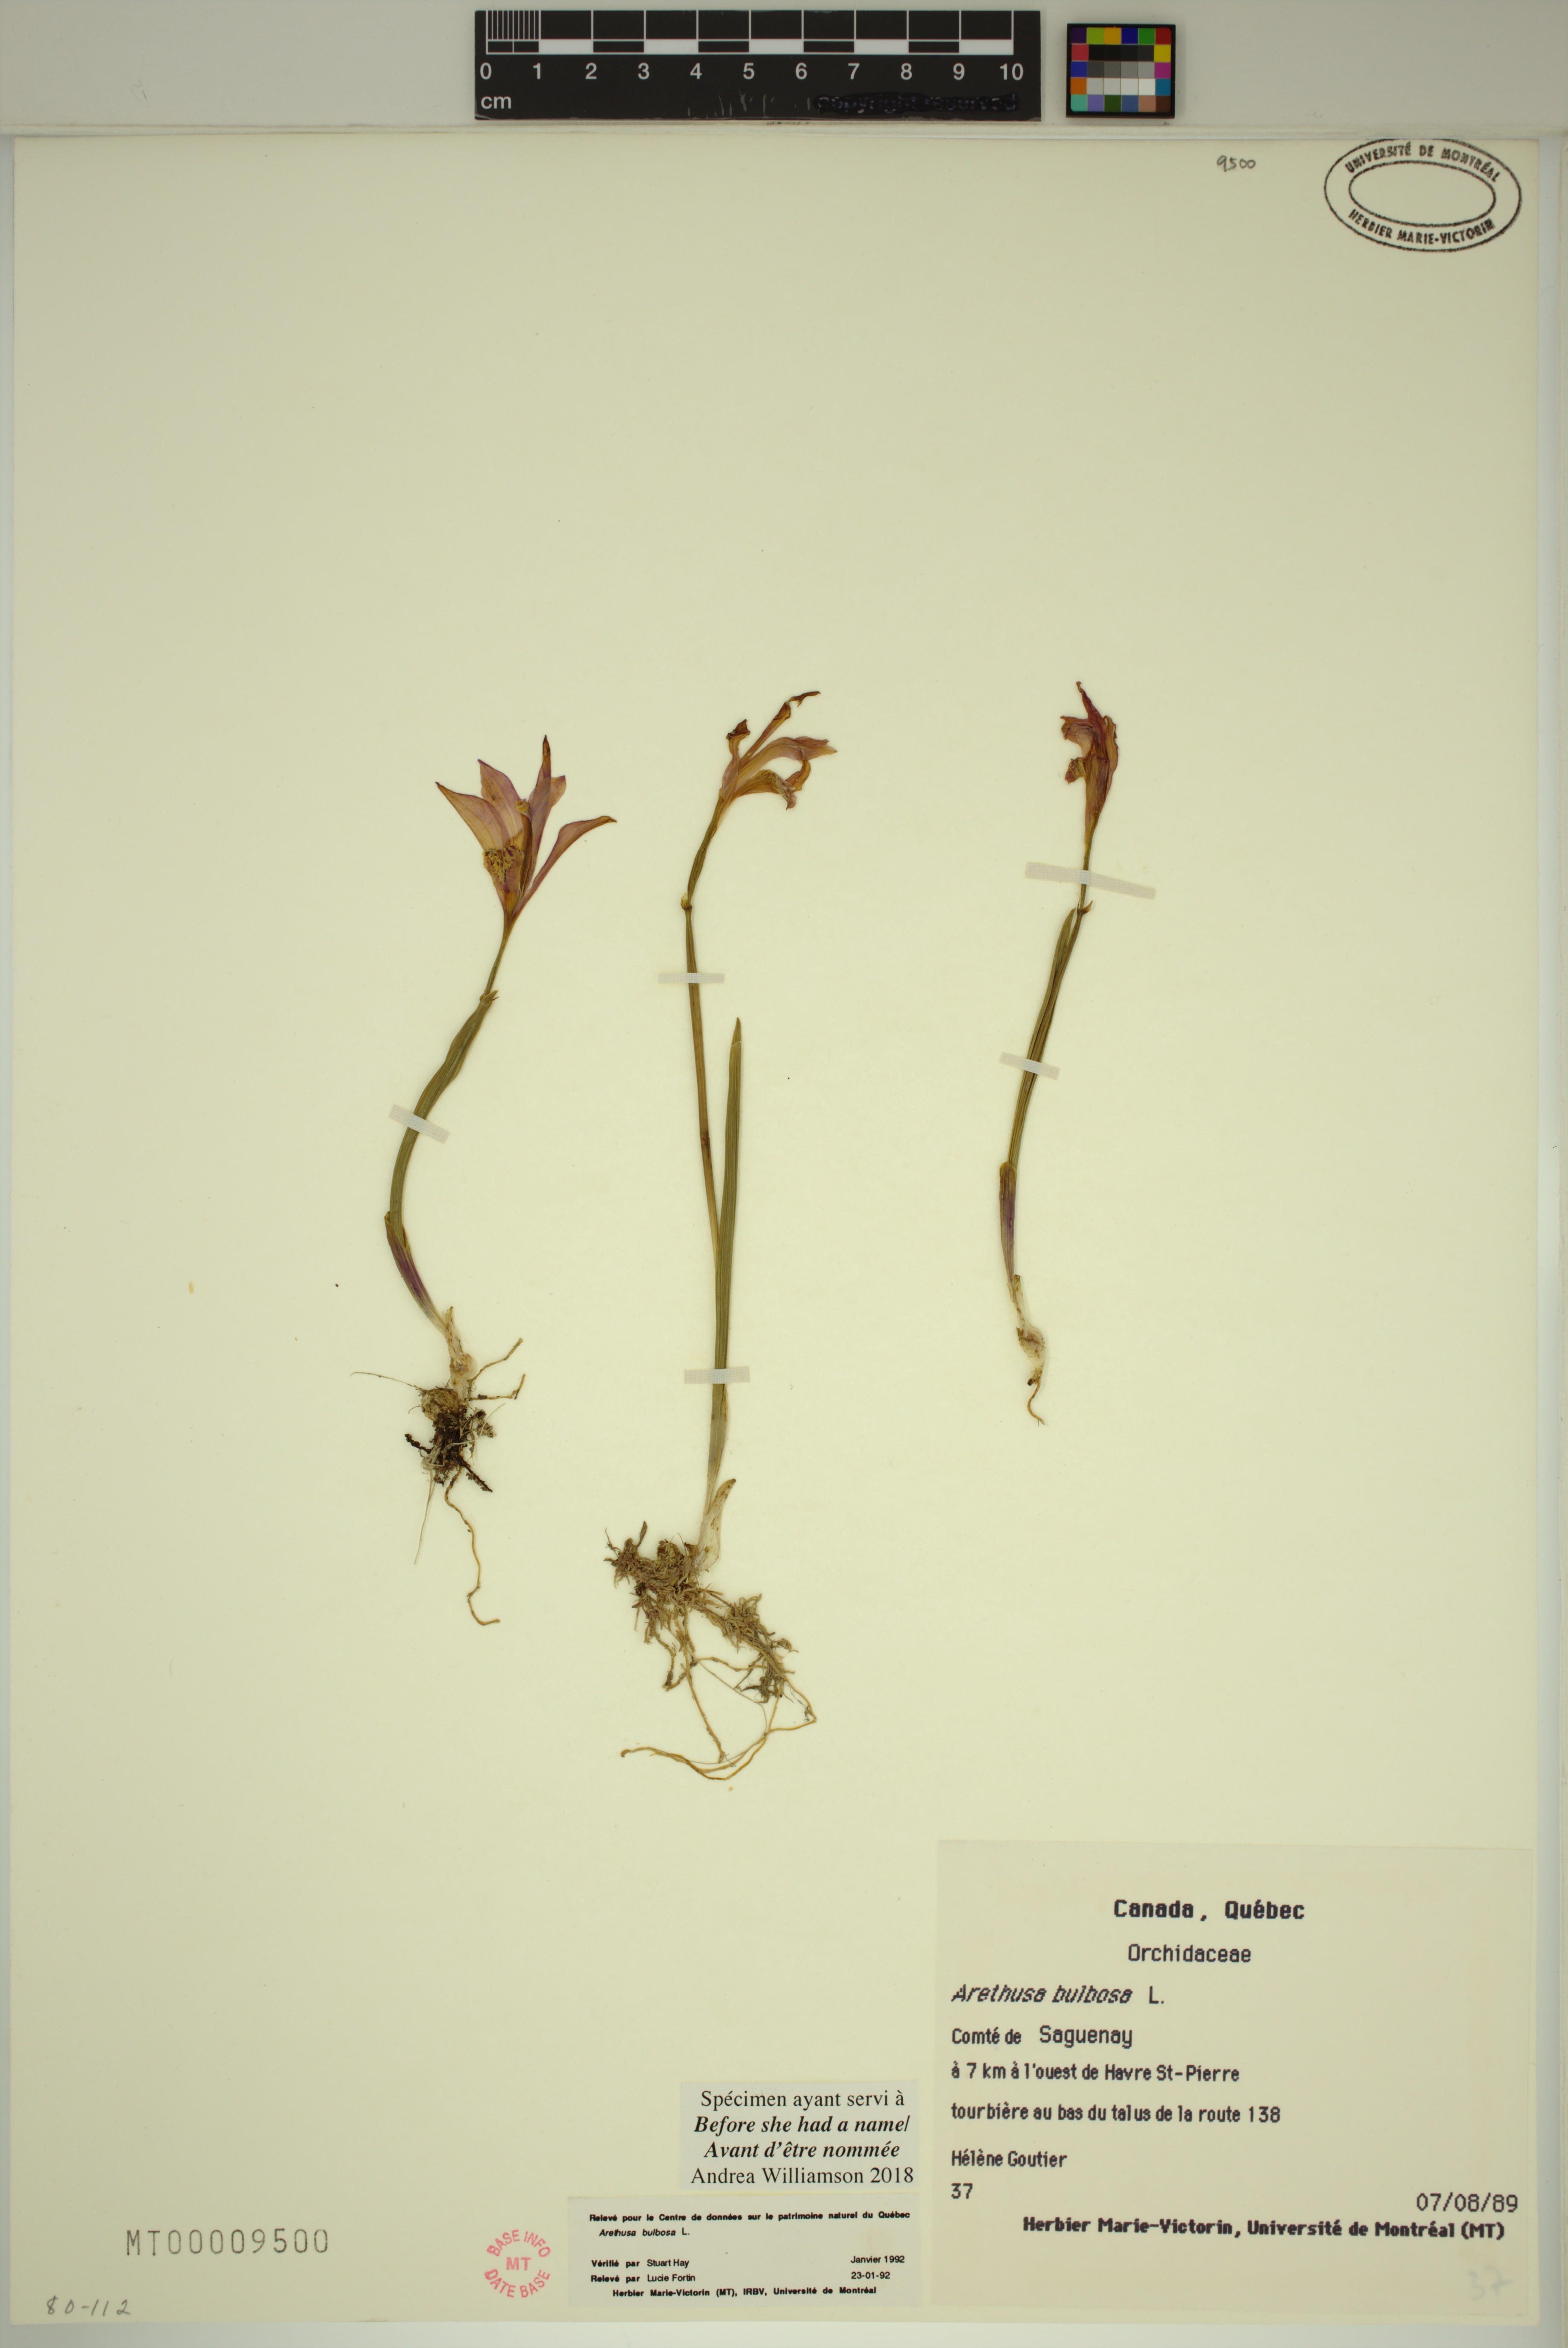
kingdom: Plantae
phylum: Tracheophyta
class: Liliopsida
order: Asparagales
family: Orchidaceae
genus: Arethusa
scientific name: Arethusa bulbosa
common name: Arethusa
